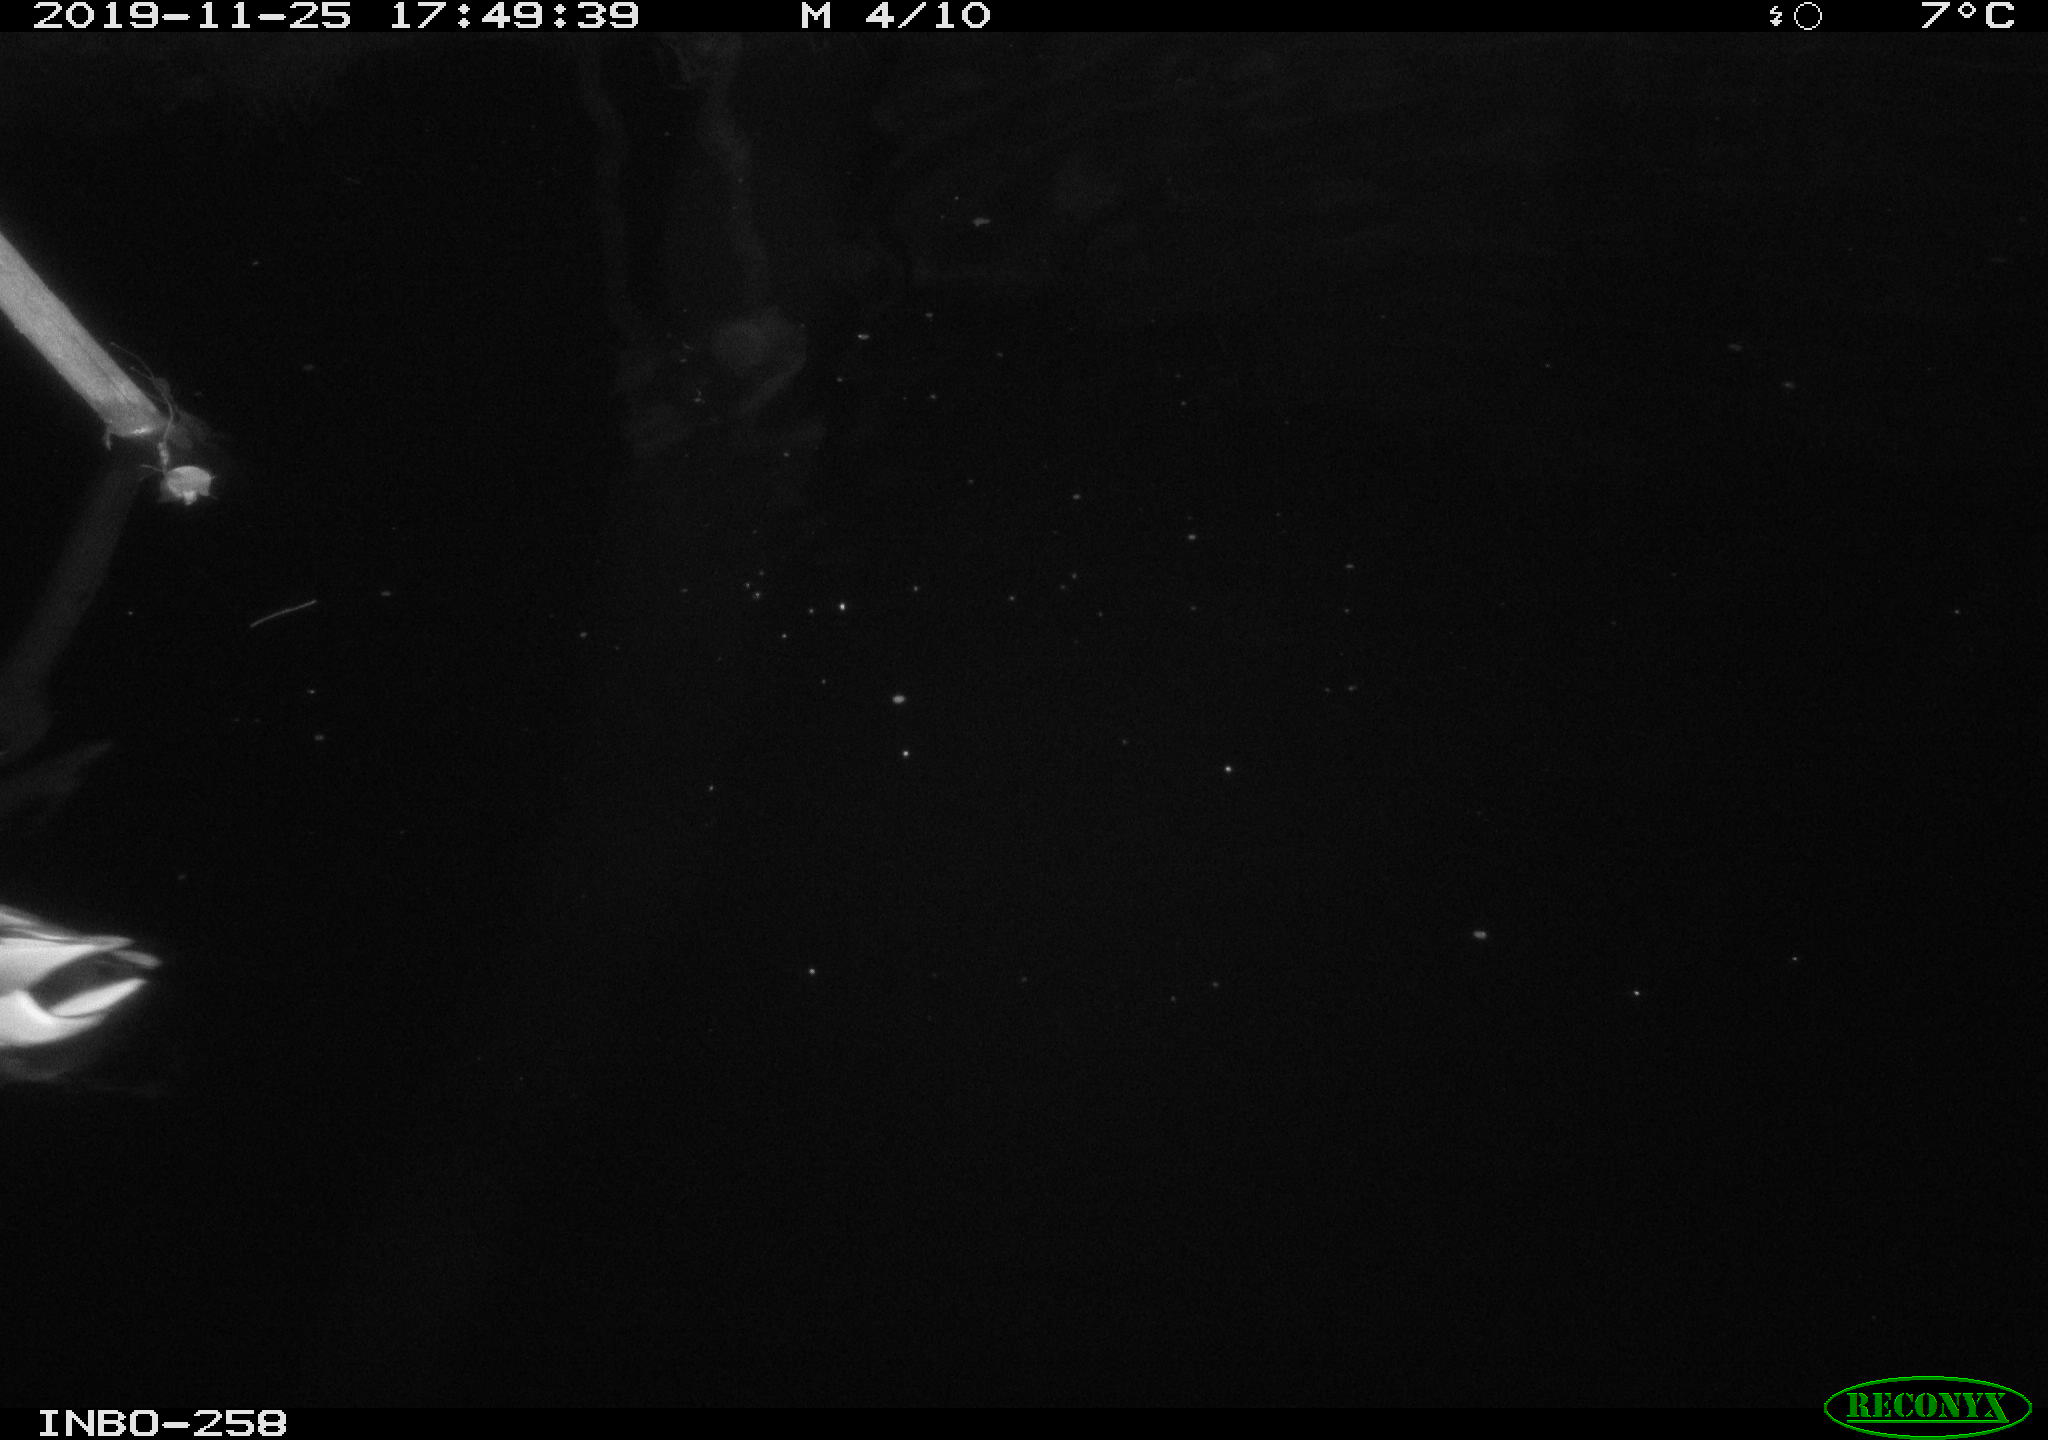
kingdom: Animalia
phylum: Chordata
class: Aves
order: Anseriformes
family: Anatidae
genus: Anas
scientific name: Anas platyrhynchos
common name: Mallard
